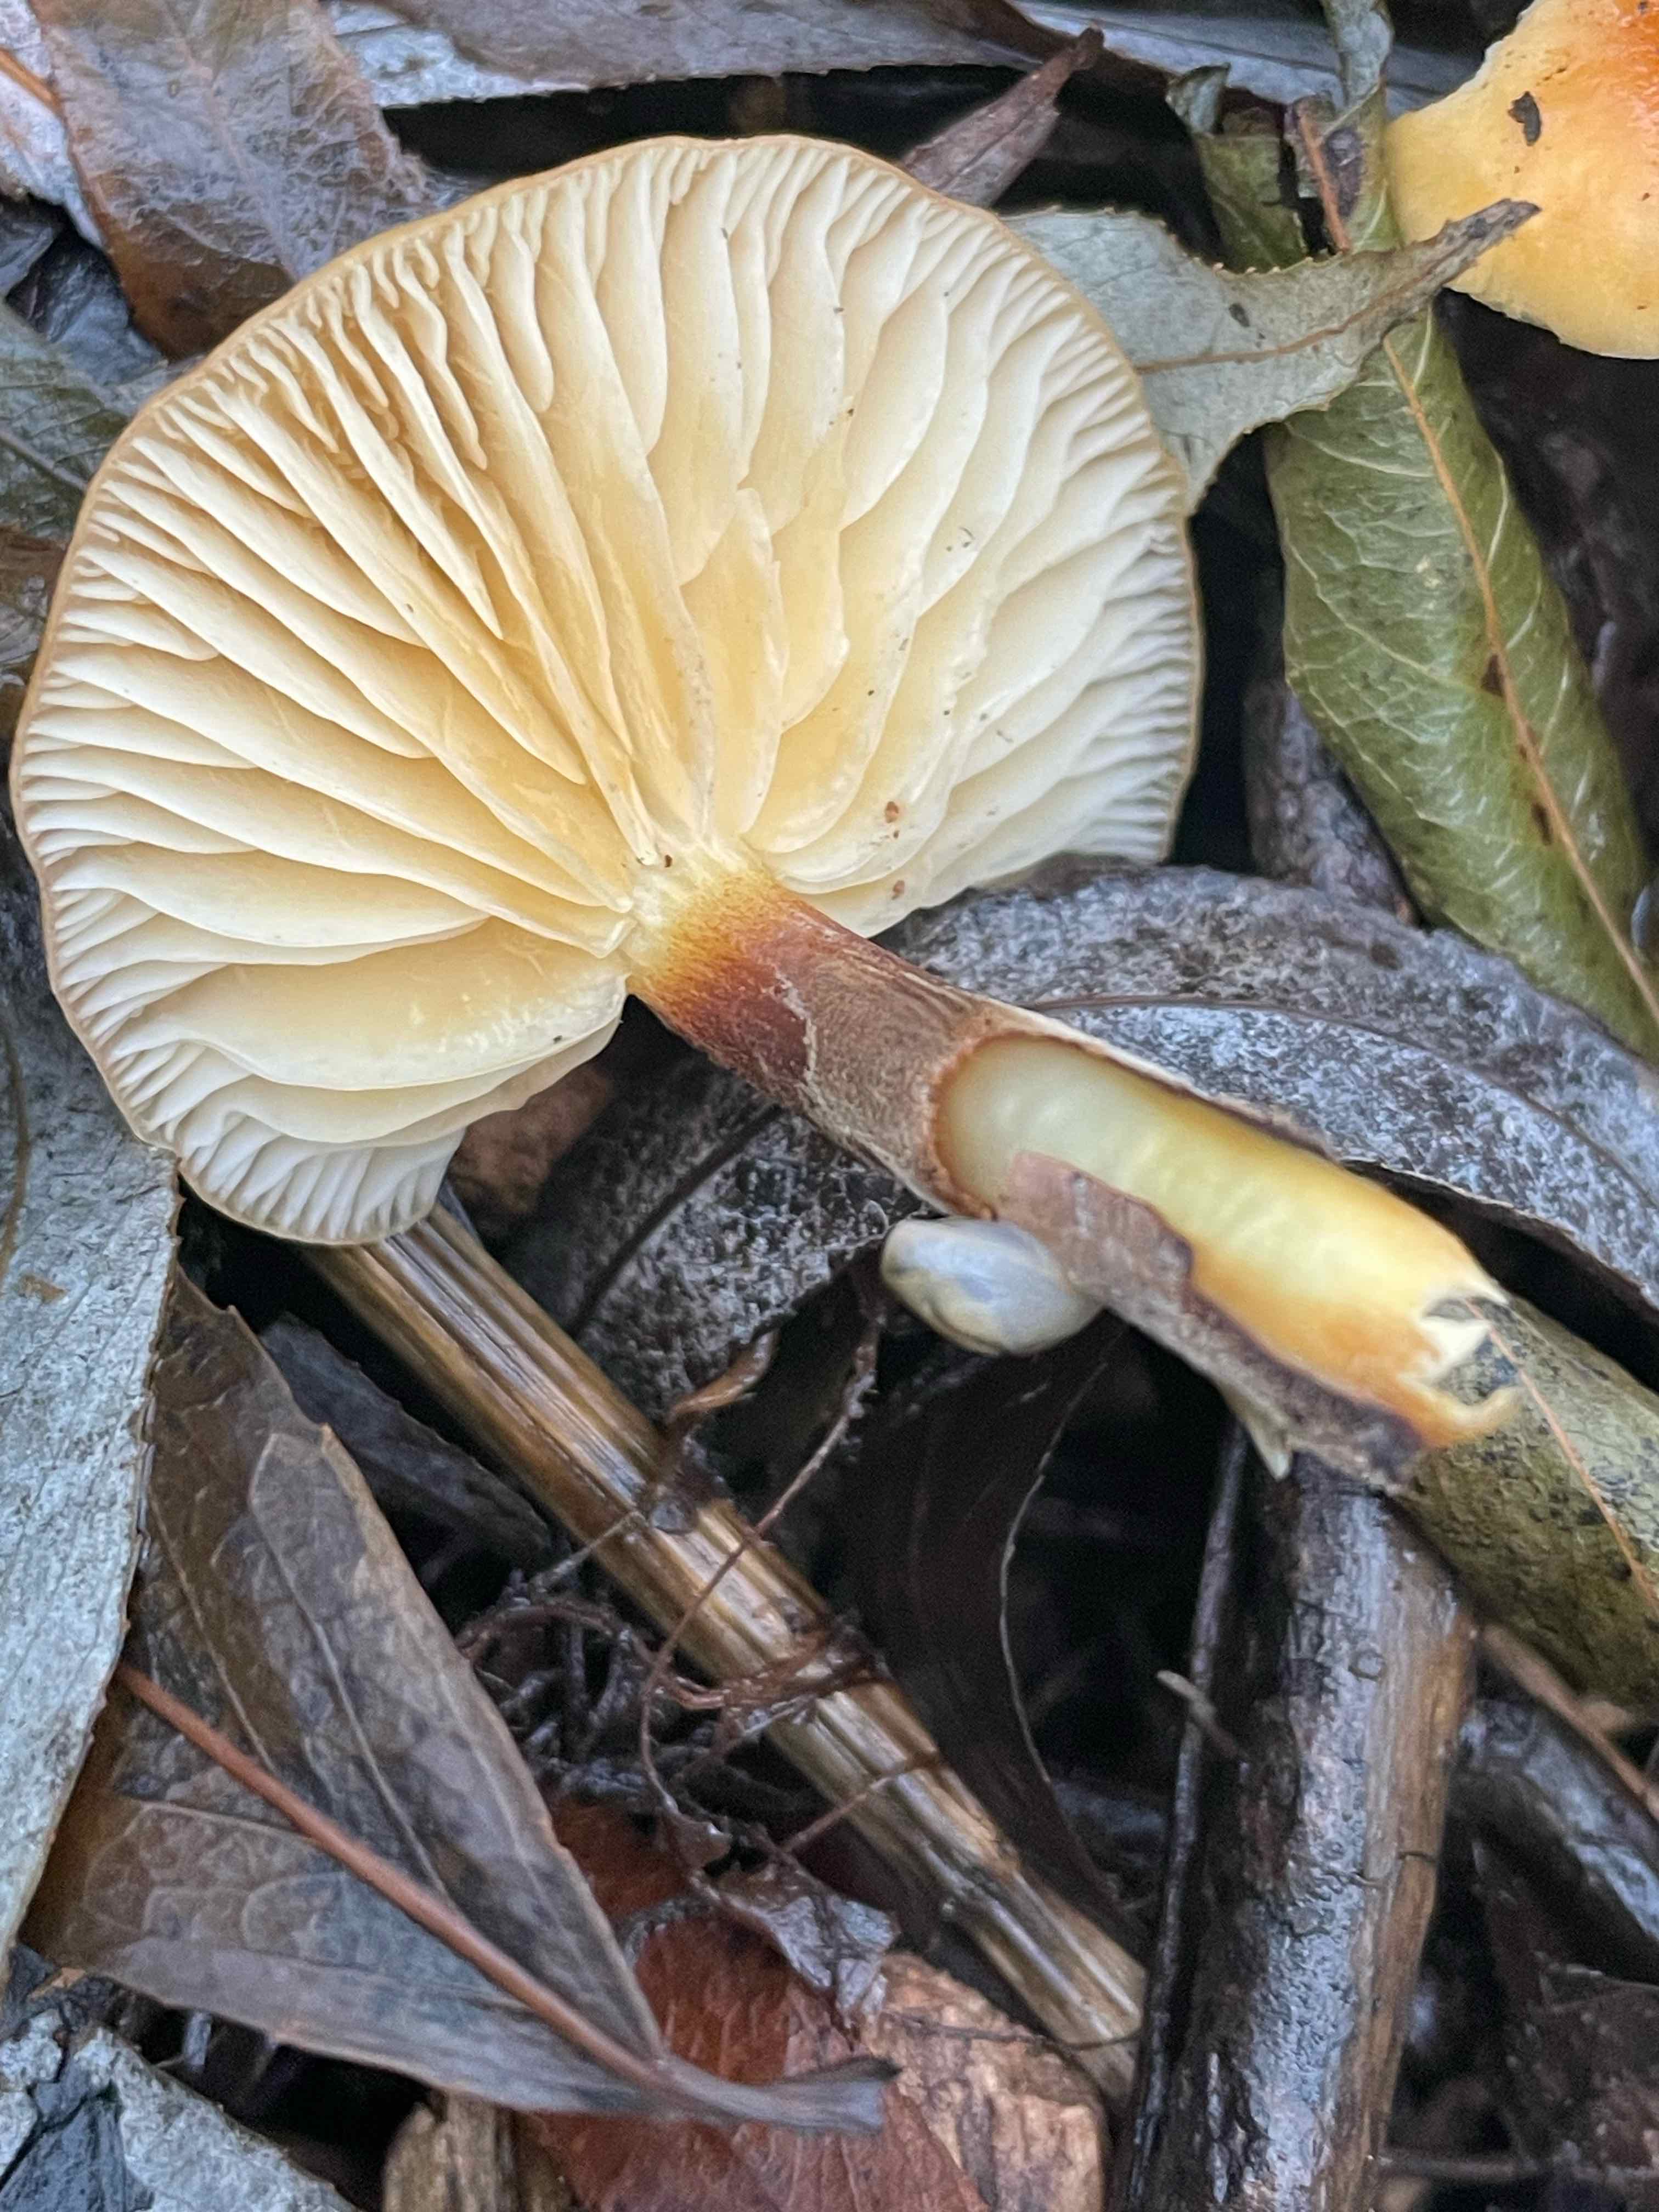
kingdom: Fungi
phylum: Basidiomycota
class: Agaricomycetes
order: Agaricales
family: Physalacriaceae
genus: Flammulina
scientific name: Flammulina
